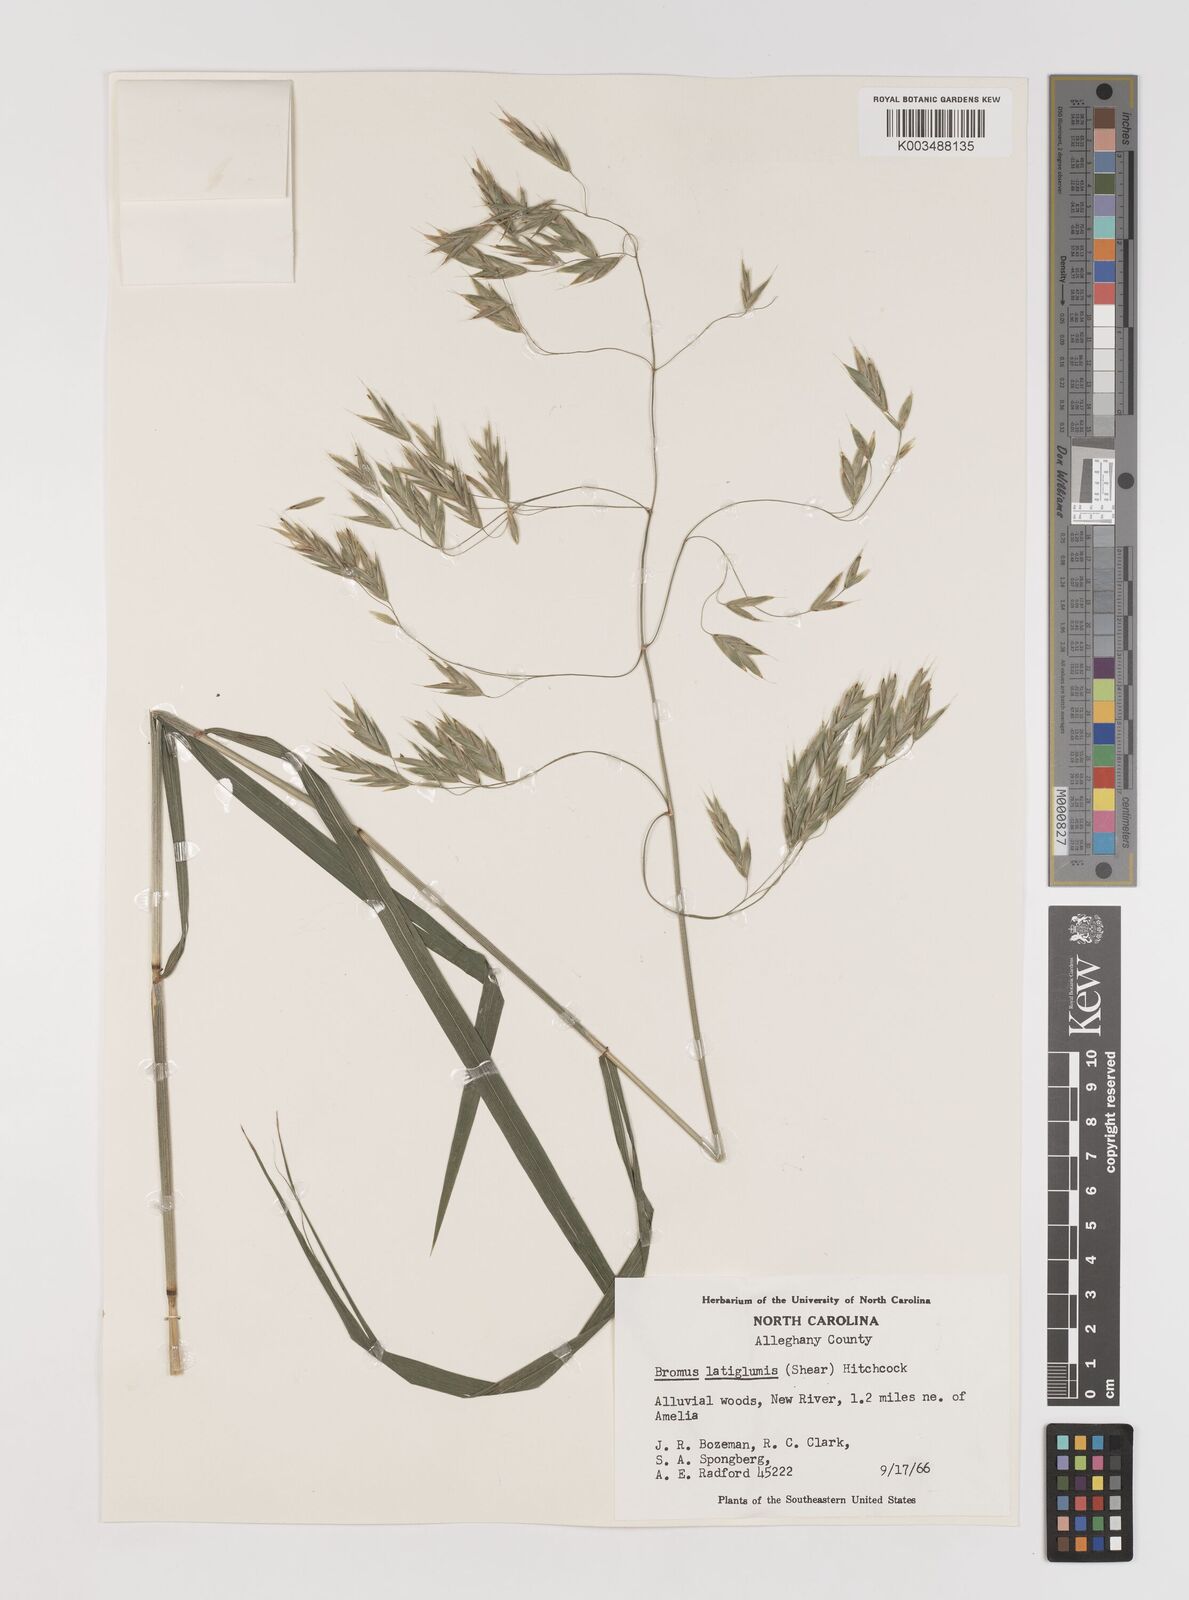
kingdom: Plantae
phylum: Tracheophyta
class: Liliopsida
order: Poales
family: Poaceae
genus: Bromus
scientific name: Bromus latiglumis
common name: Broad-glumed brome
